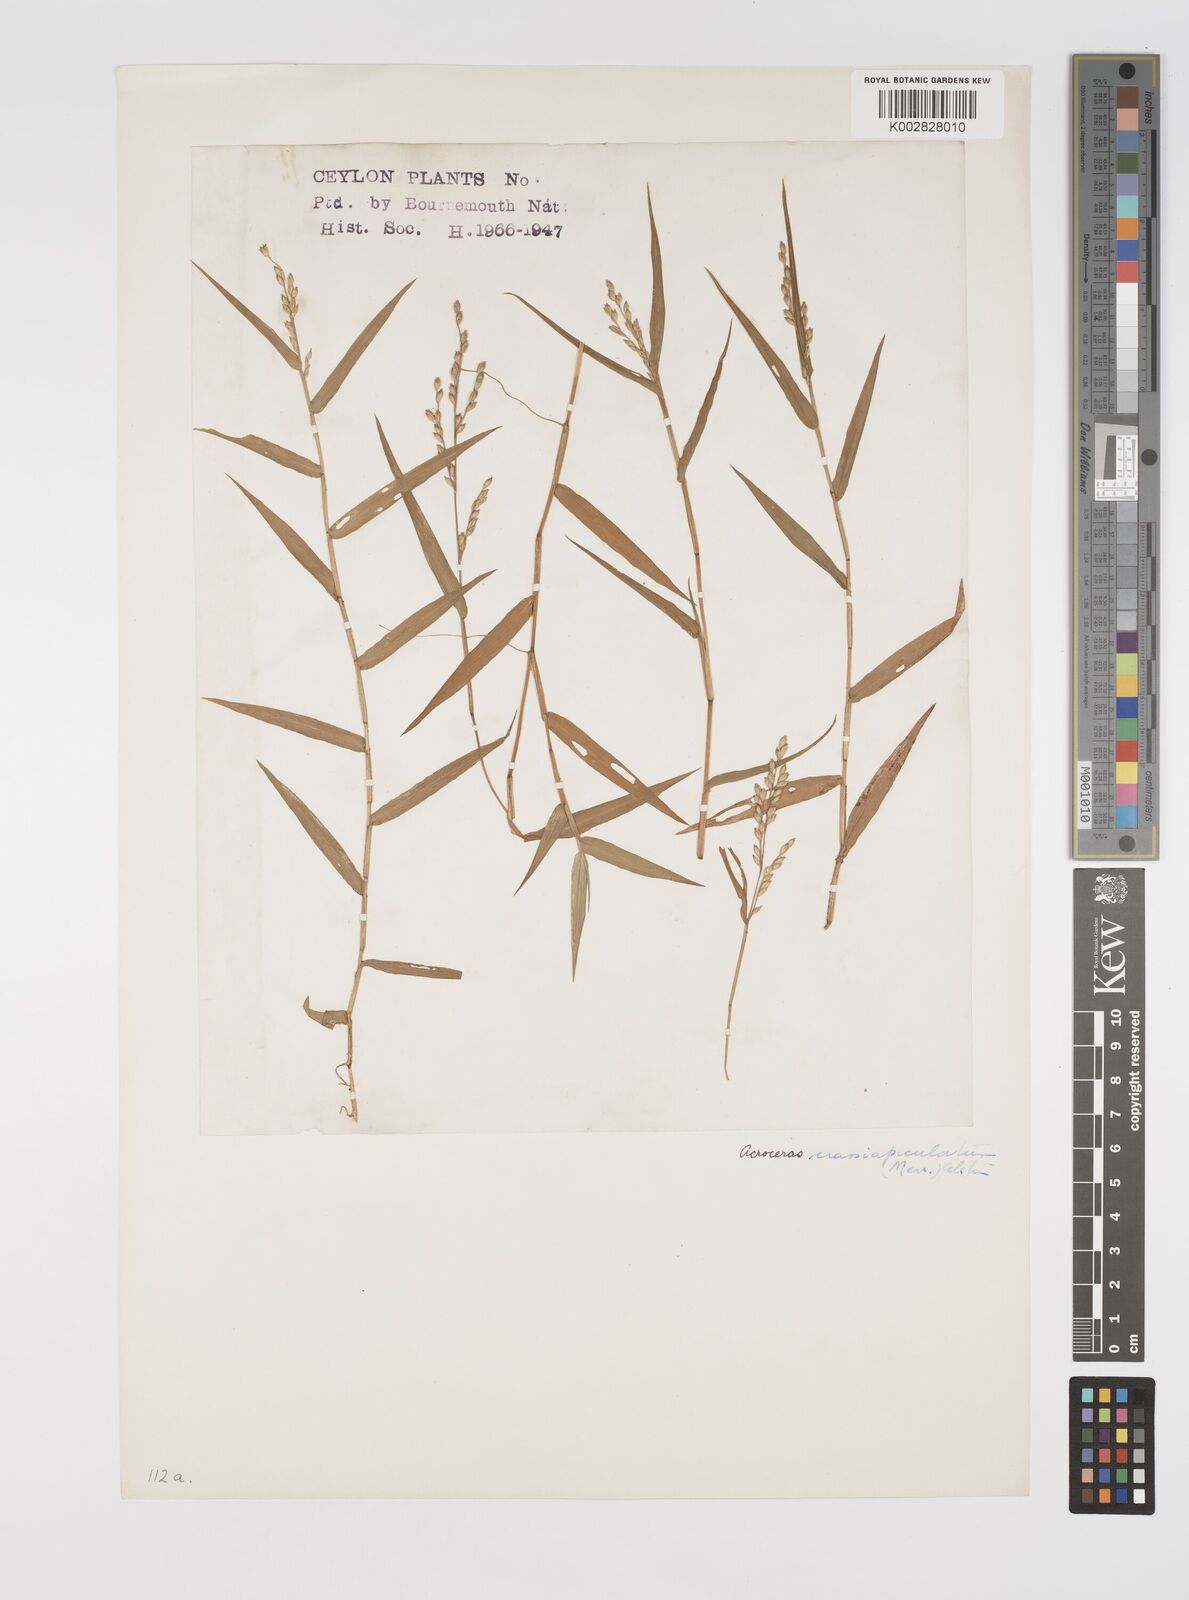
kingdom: Plantae
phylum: Tracheophyta
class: Liliopsida
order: Poales
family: Poaceae
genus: Acroceras
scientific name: Acroceras munroanum
